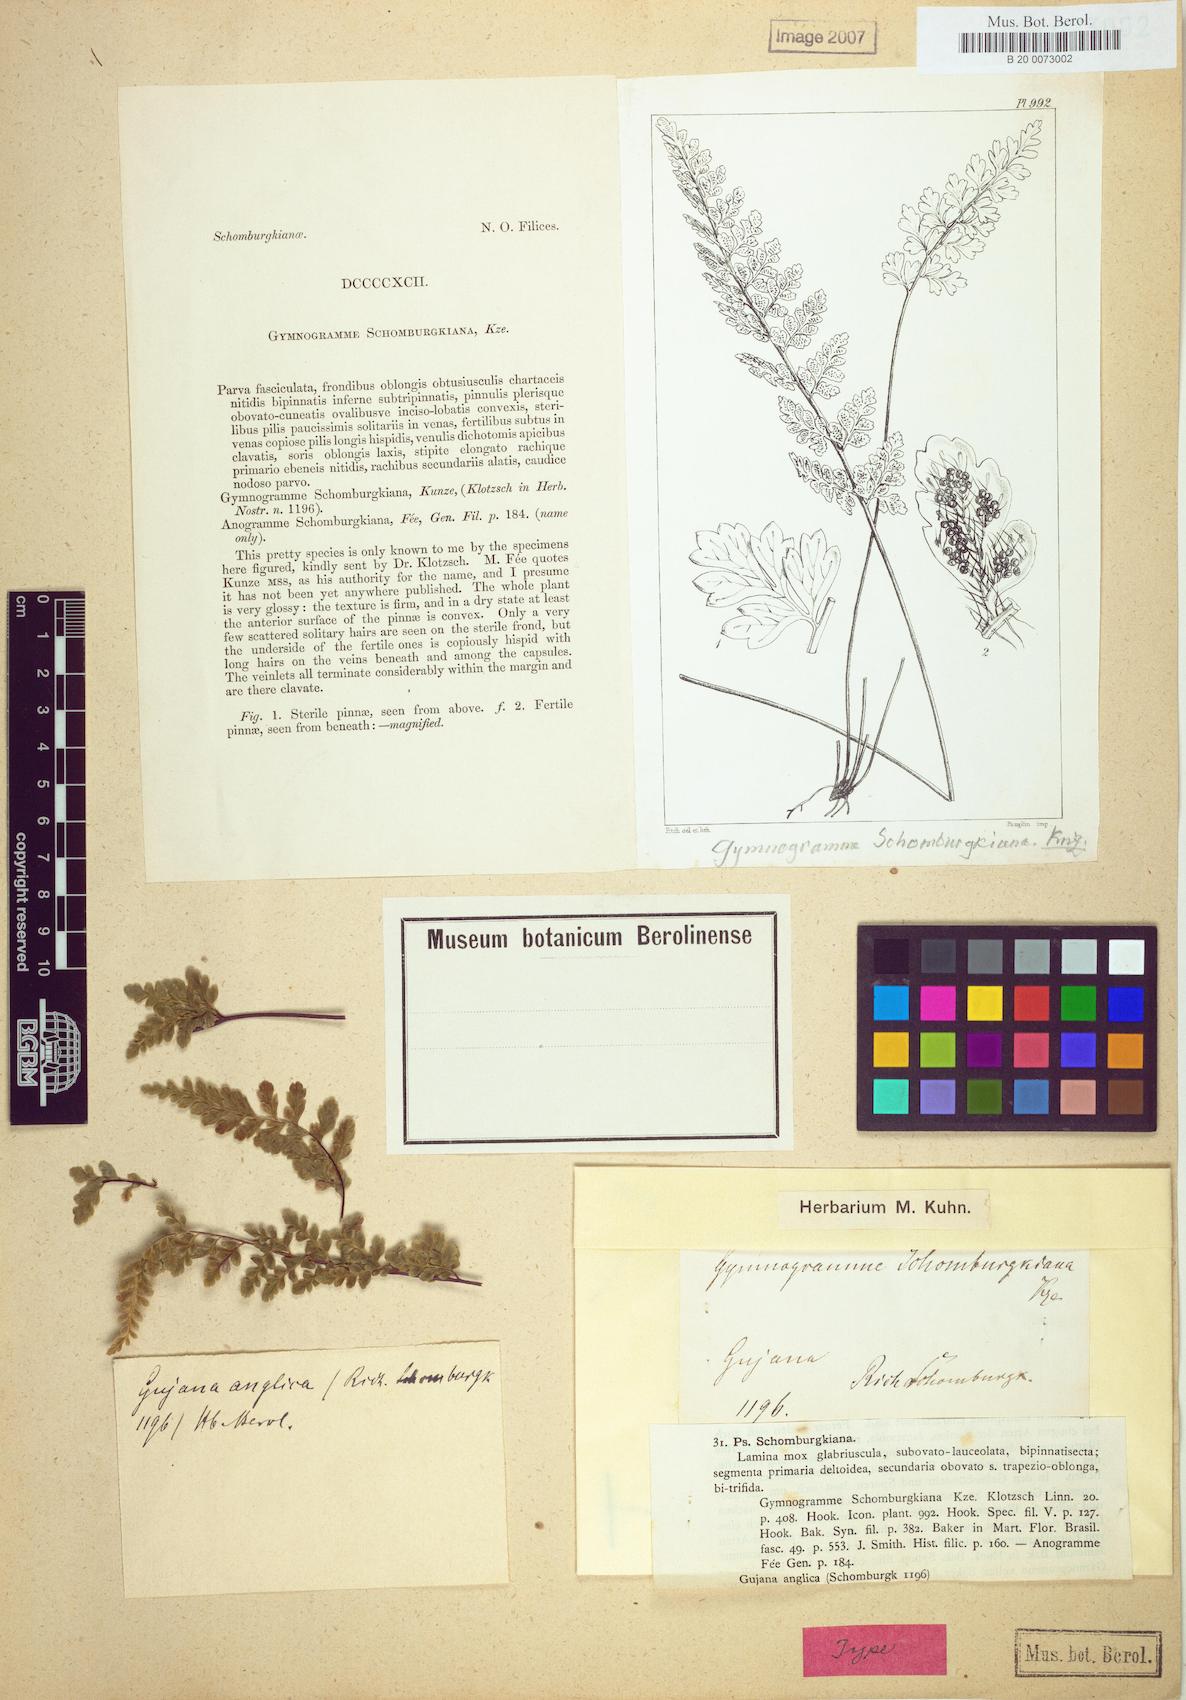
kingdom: Plantae
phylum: Tracheophyta
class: Polypodiopsida
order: Polypodiales
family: Pteridaceae
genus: Jamesonia
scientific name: Jamesonia hispidula
